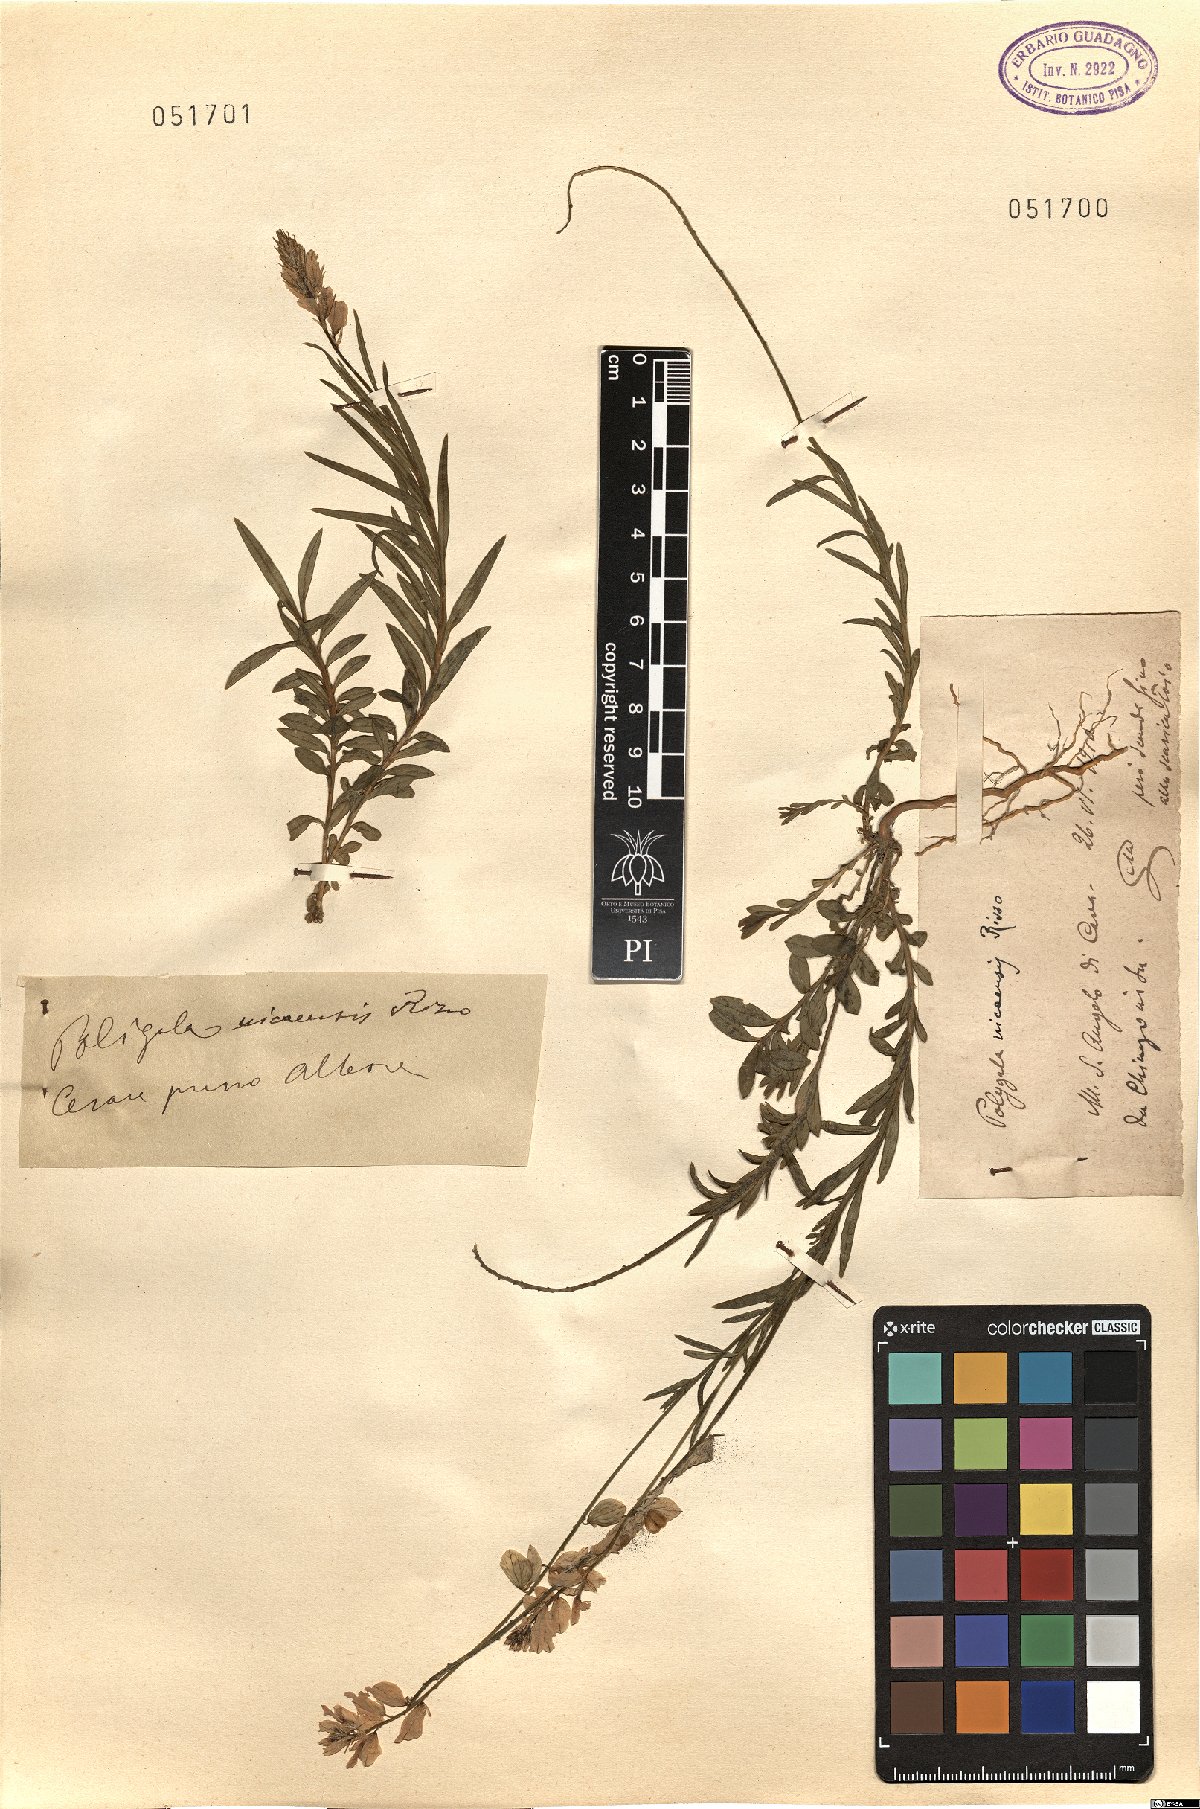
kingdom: Plantae
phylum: Tracheophyta
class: Magnoliopsida
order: Fabales
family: Polygalaceae
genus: Polygala
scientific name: Polygala nicaeensis
